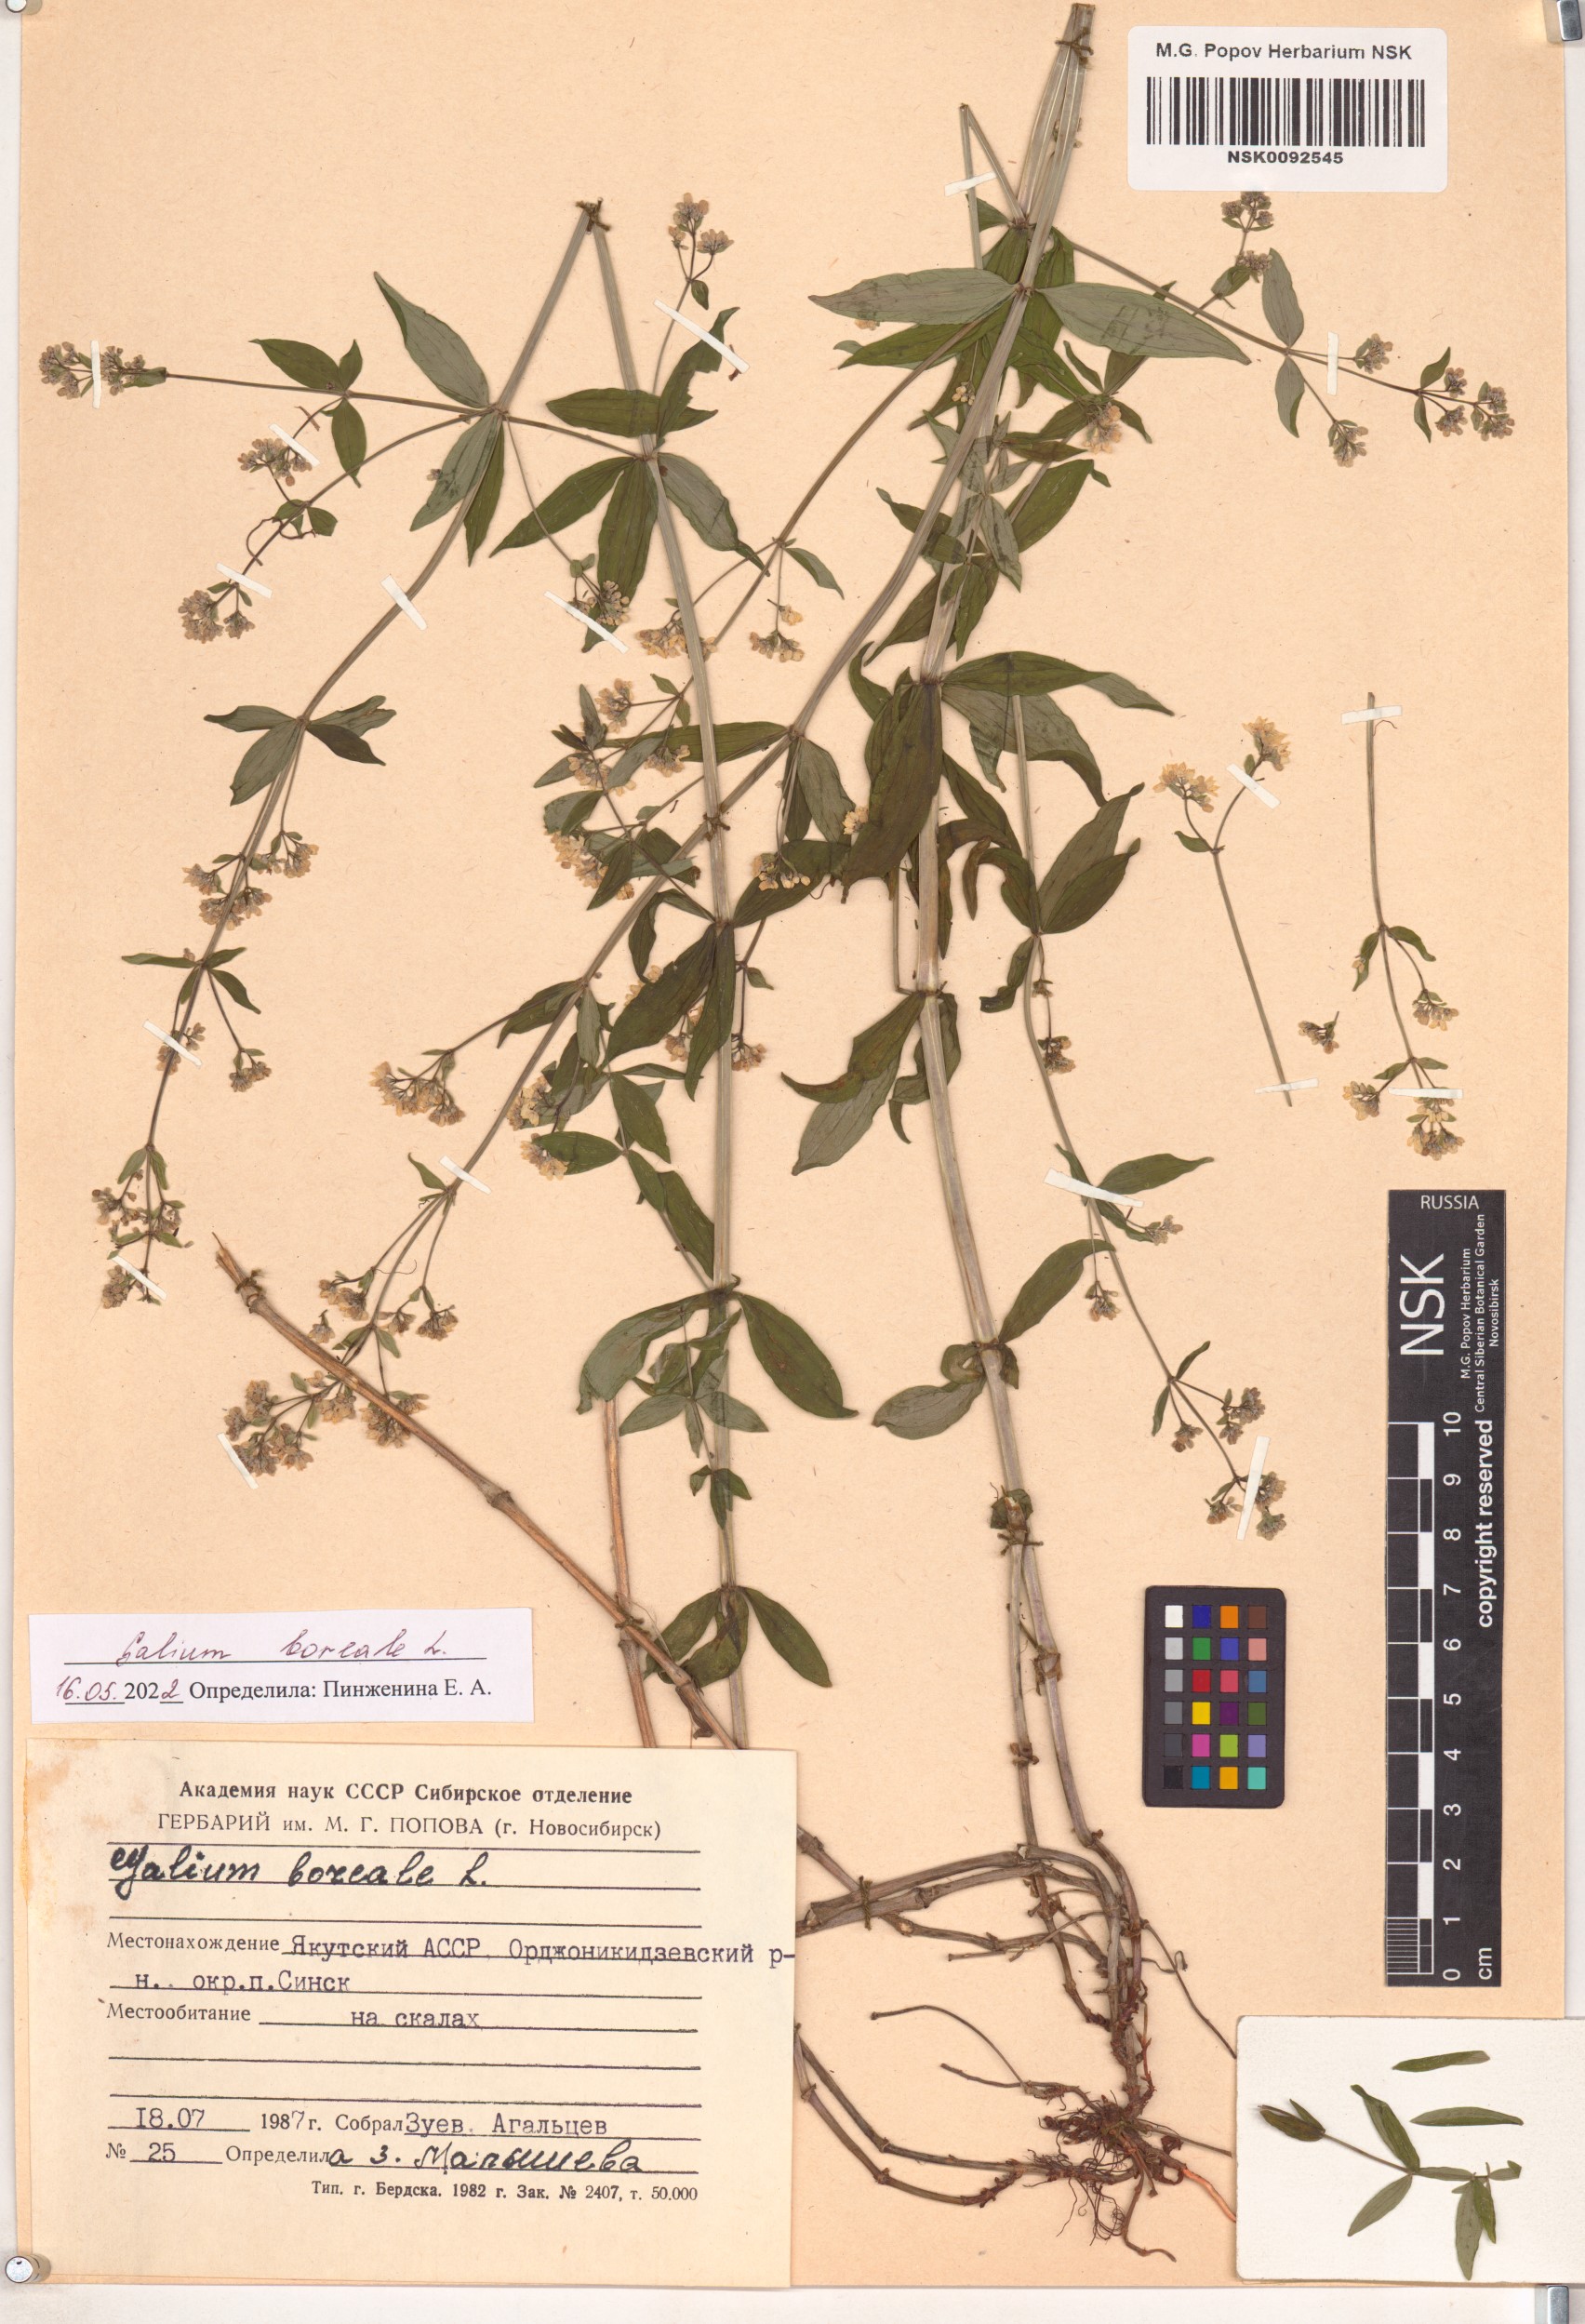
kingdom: Plantae
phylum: Tracheophyta
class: Magnoliopsida
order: Gentianales
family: Rubiaceae
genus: Galium
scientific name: Galium boreale
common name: Northern bedstraw
